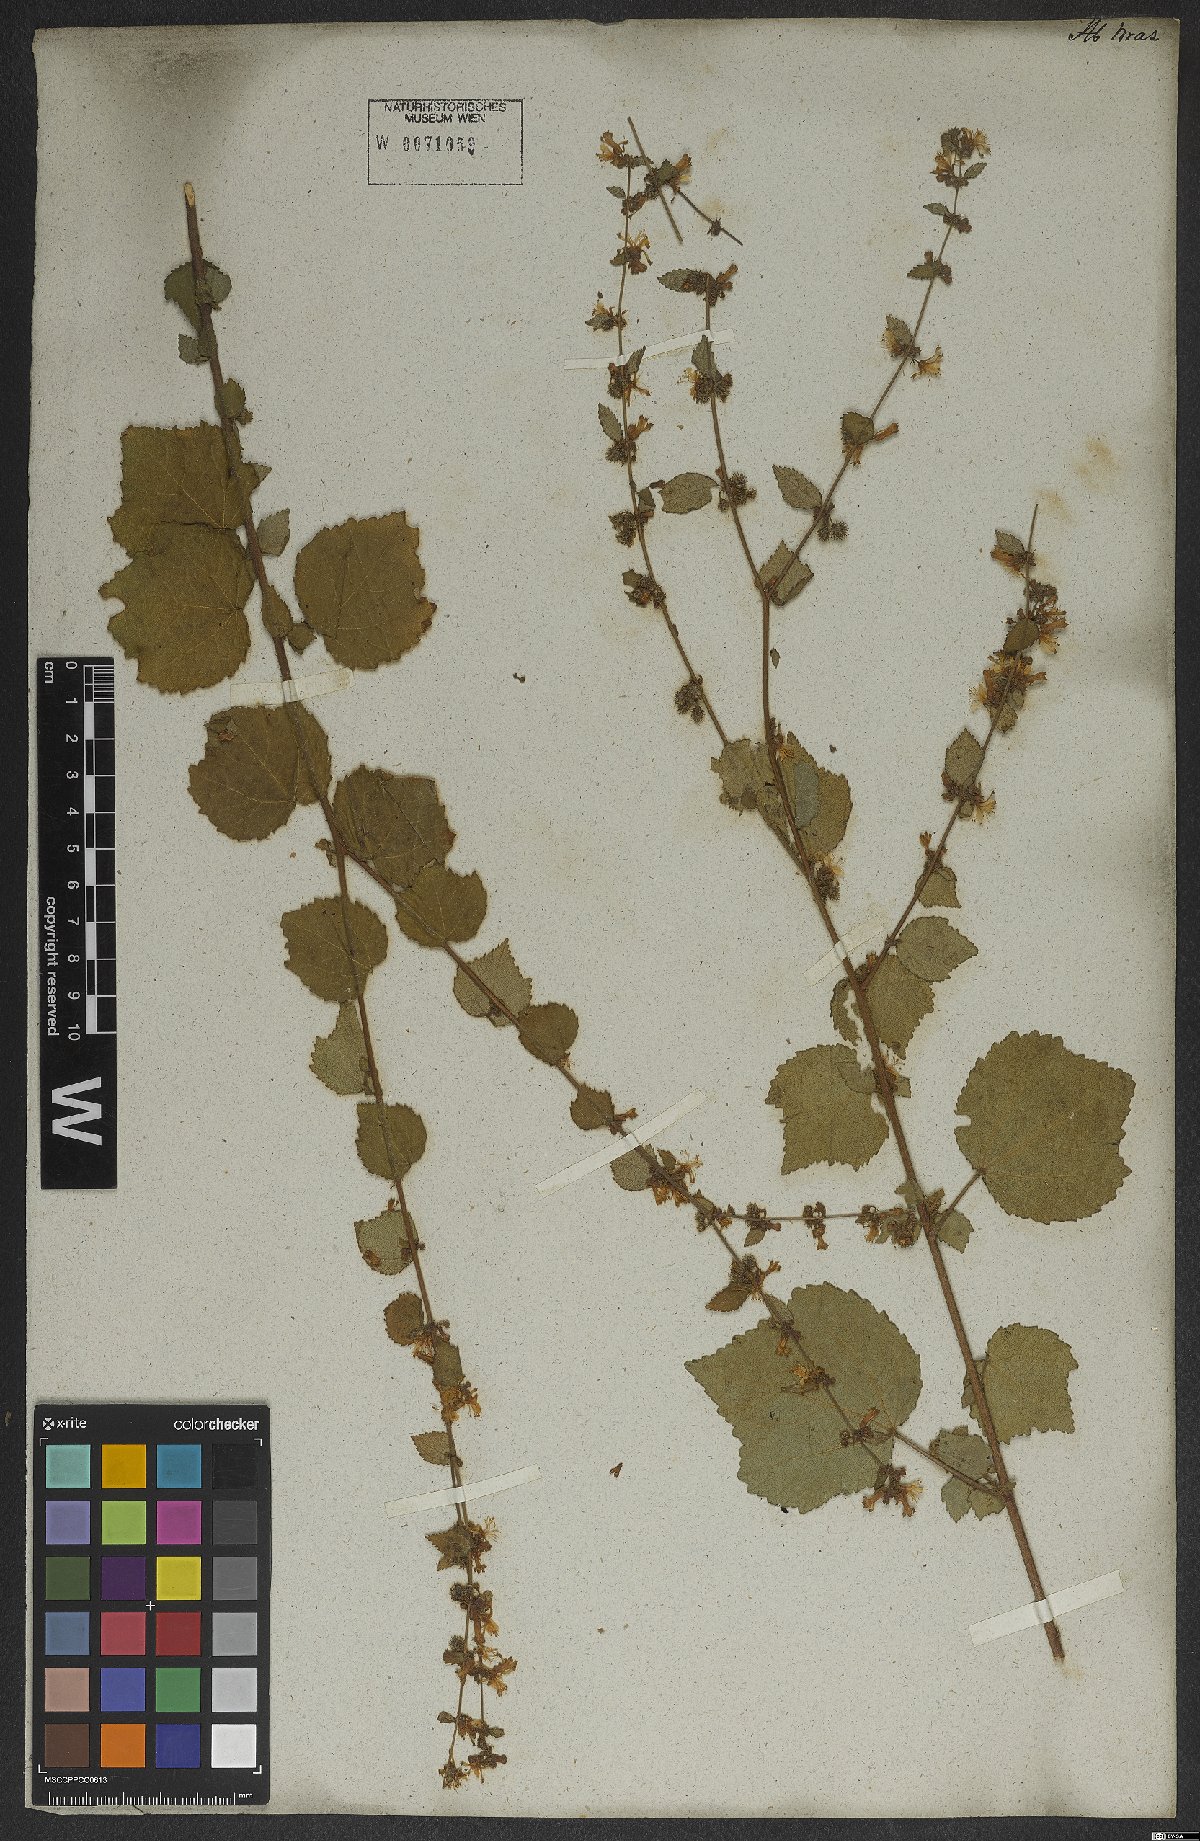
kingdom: Plantae
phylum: Tracheophyta
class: Magnoliopsida
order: Malvales
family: Malvaceae
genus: Triumfetta
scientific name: Triumfetta rhomboidea
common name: Diamond burbark
